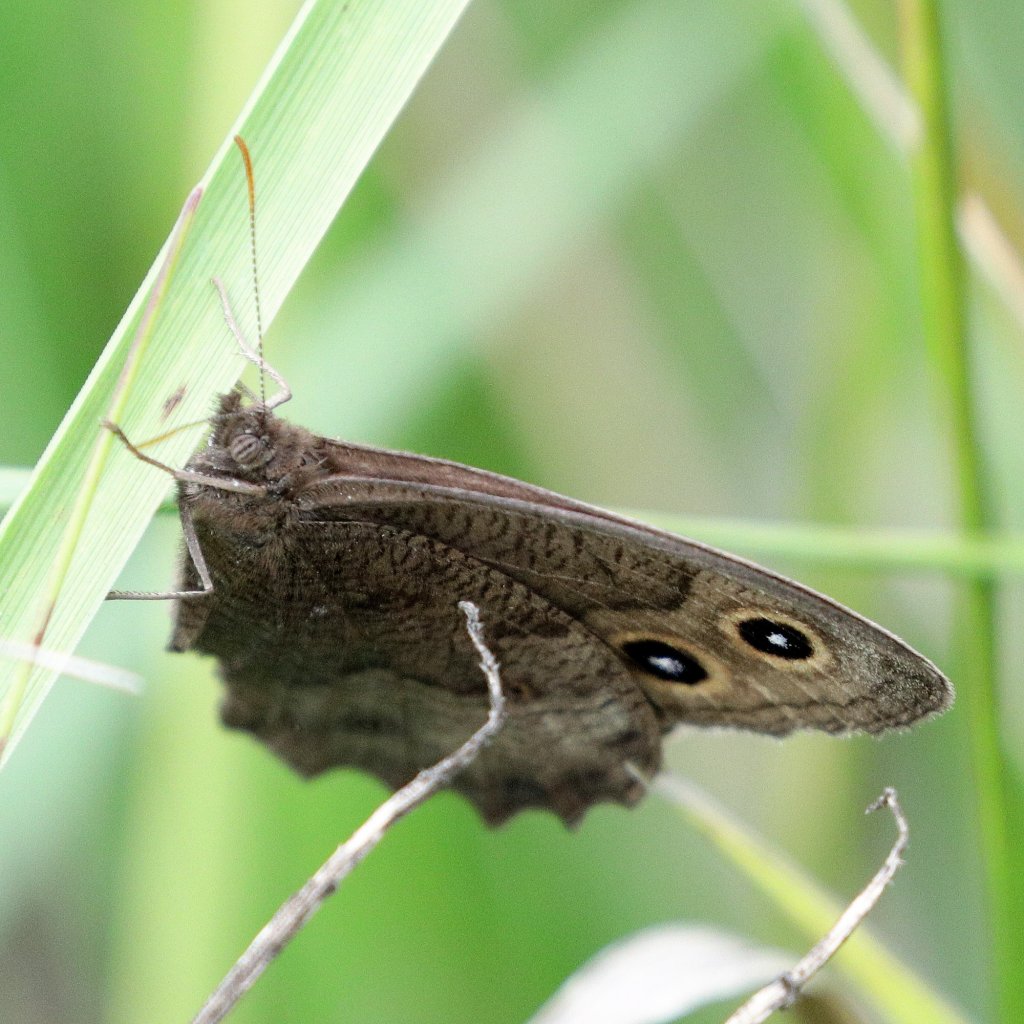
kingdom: Animalia
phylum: Arthropoda
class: Insecta
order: Lepidoptera
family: Nymphalidae
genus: Cercyonis
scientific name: Cercyonis pegala
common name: Common Wood-Nymph
